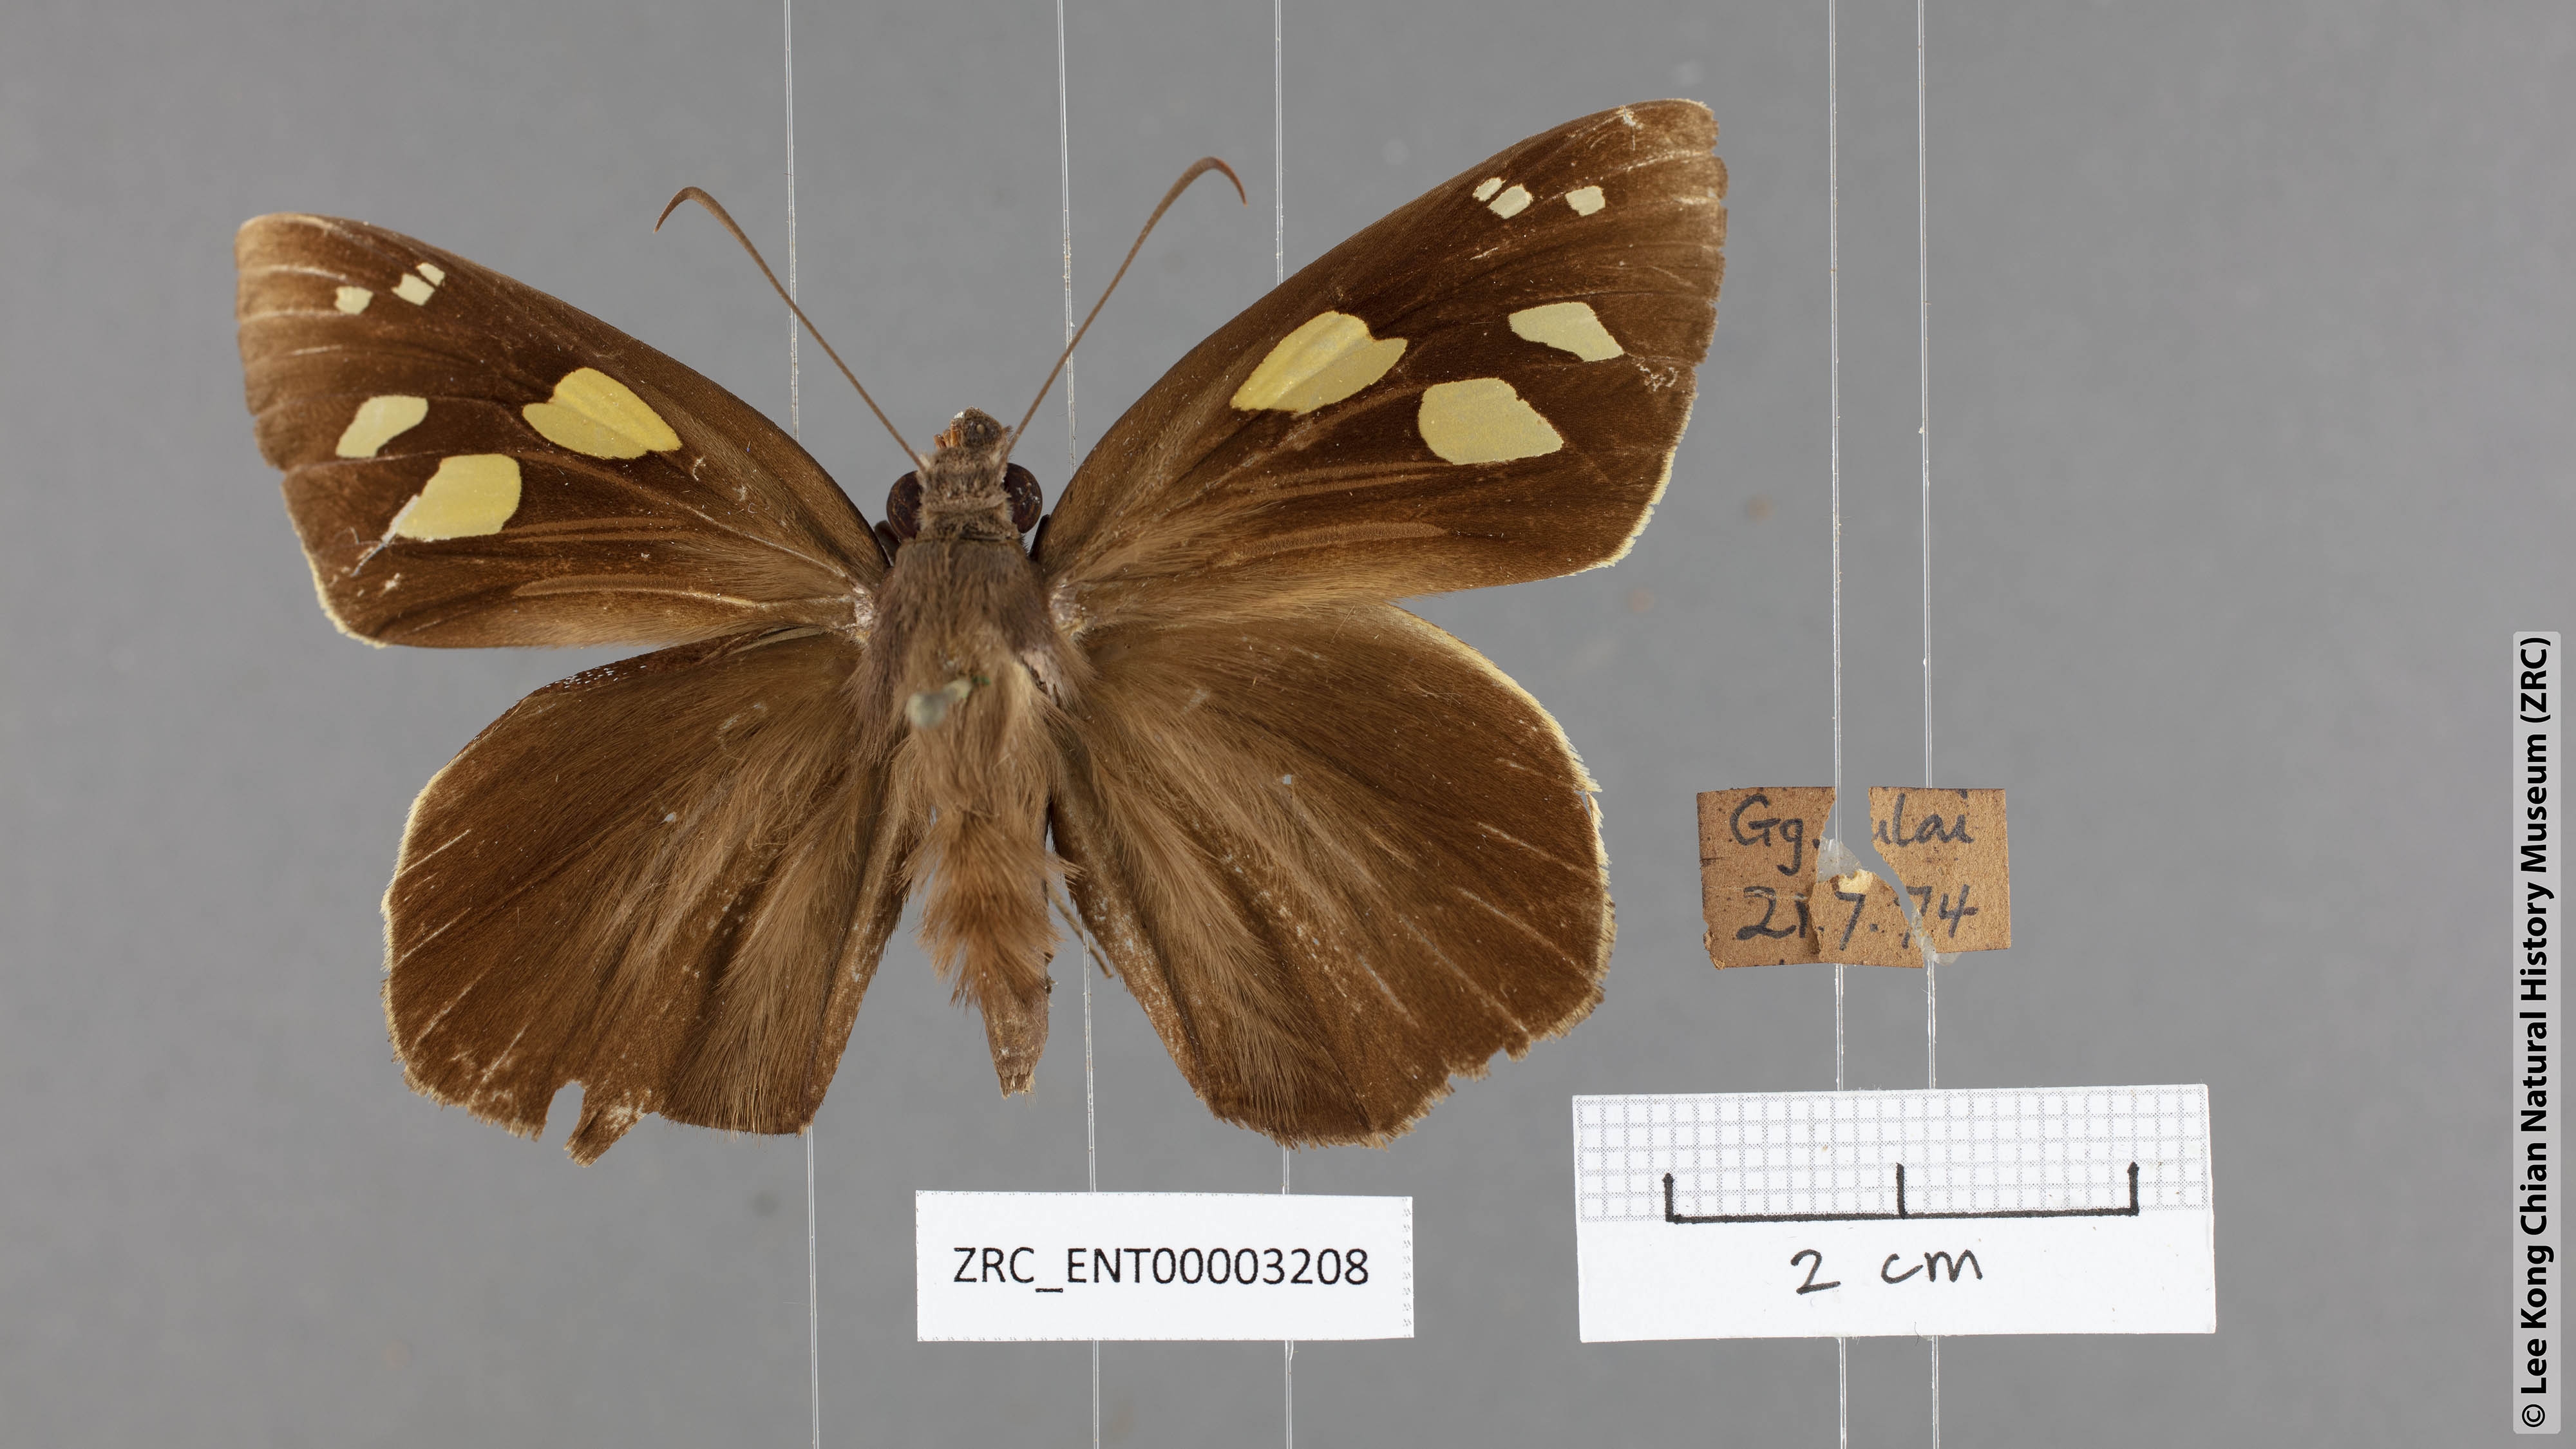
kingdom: Animalia
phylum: Arthropoda
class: Insecta
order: Lepidoptera
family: Hesperiidae
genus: Gangara
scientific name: Gangara thyrsis
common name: Giant redeye
